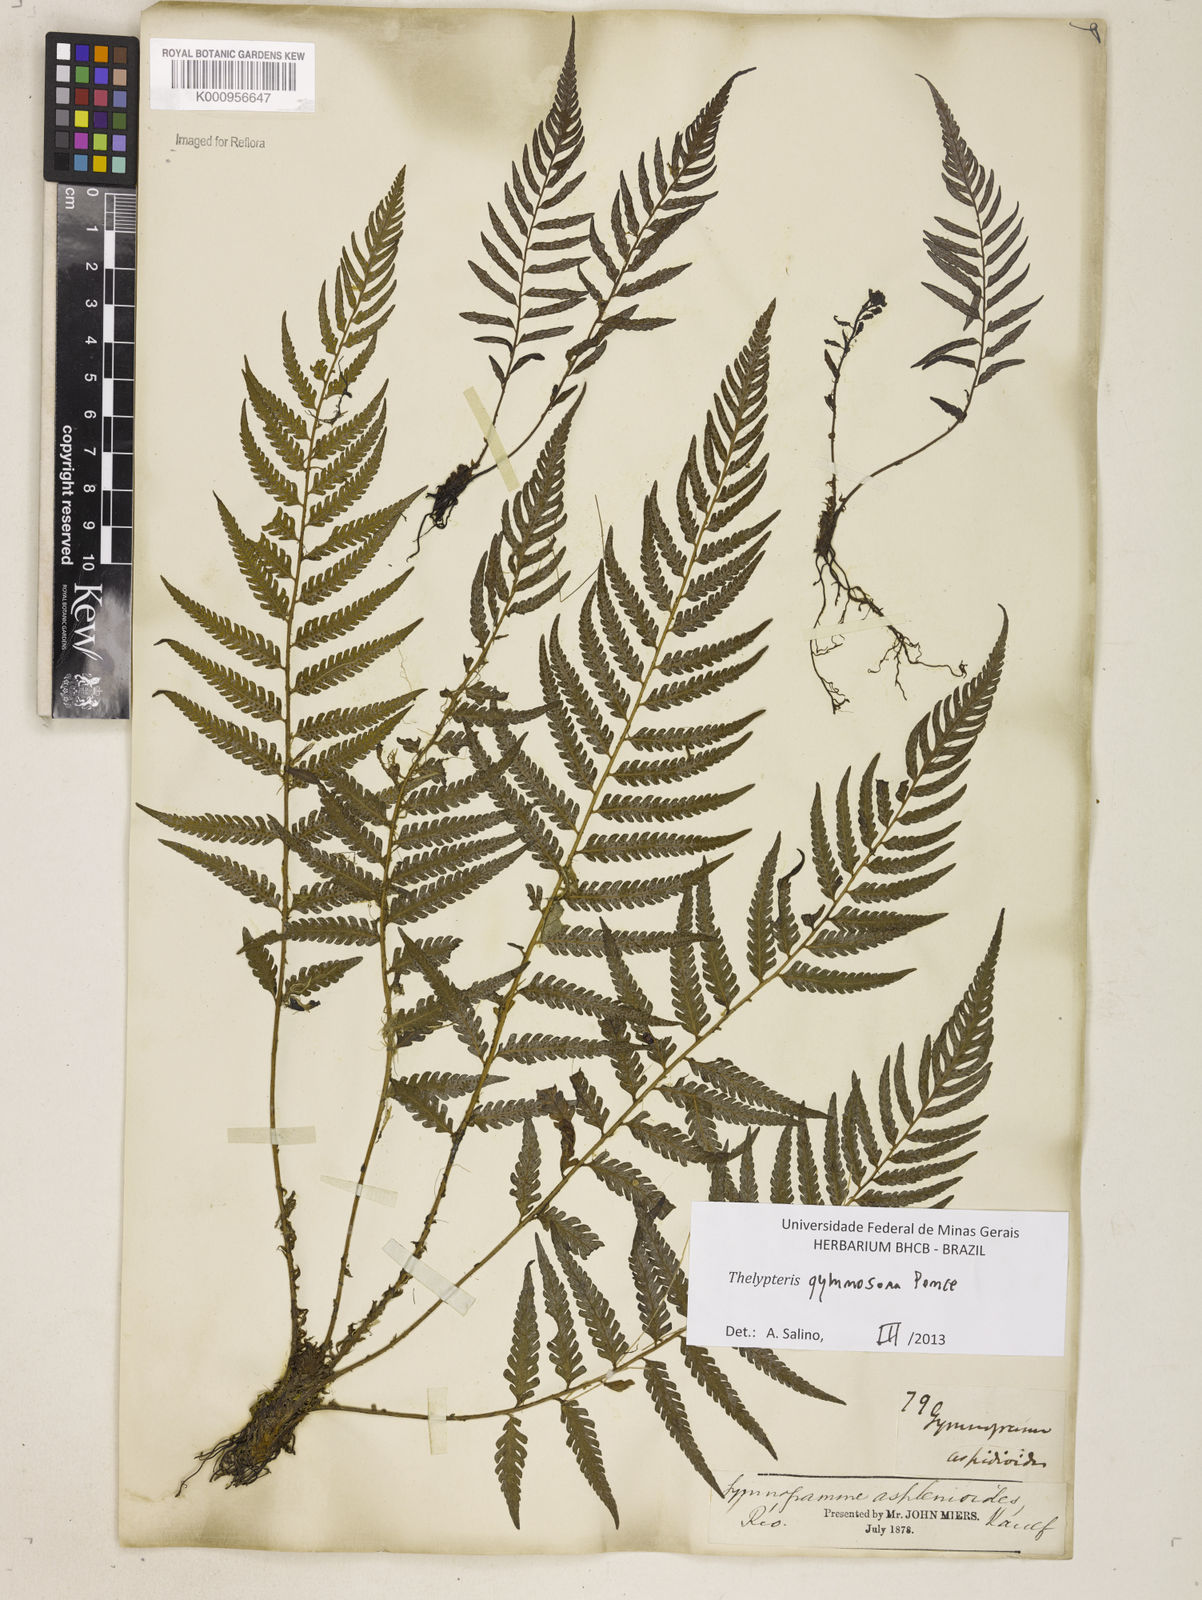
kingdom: Plantae
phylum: Tracheophyta
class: Polypodiopsida
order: Polypodiales
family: Thelypteridaceae
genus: Amauropelta
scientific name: Amauropelta
